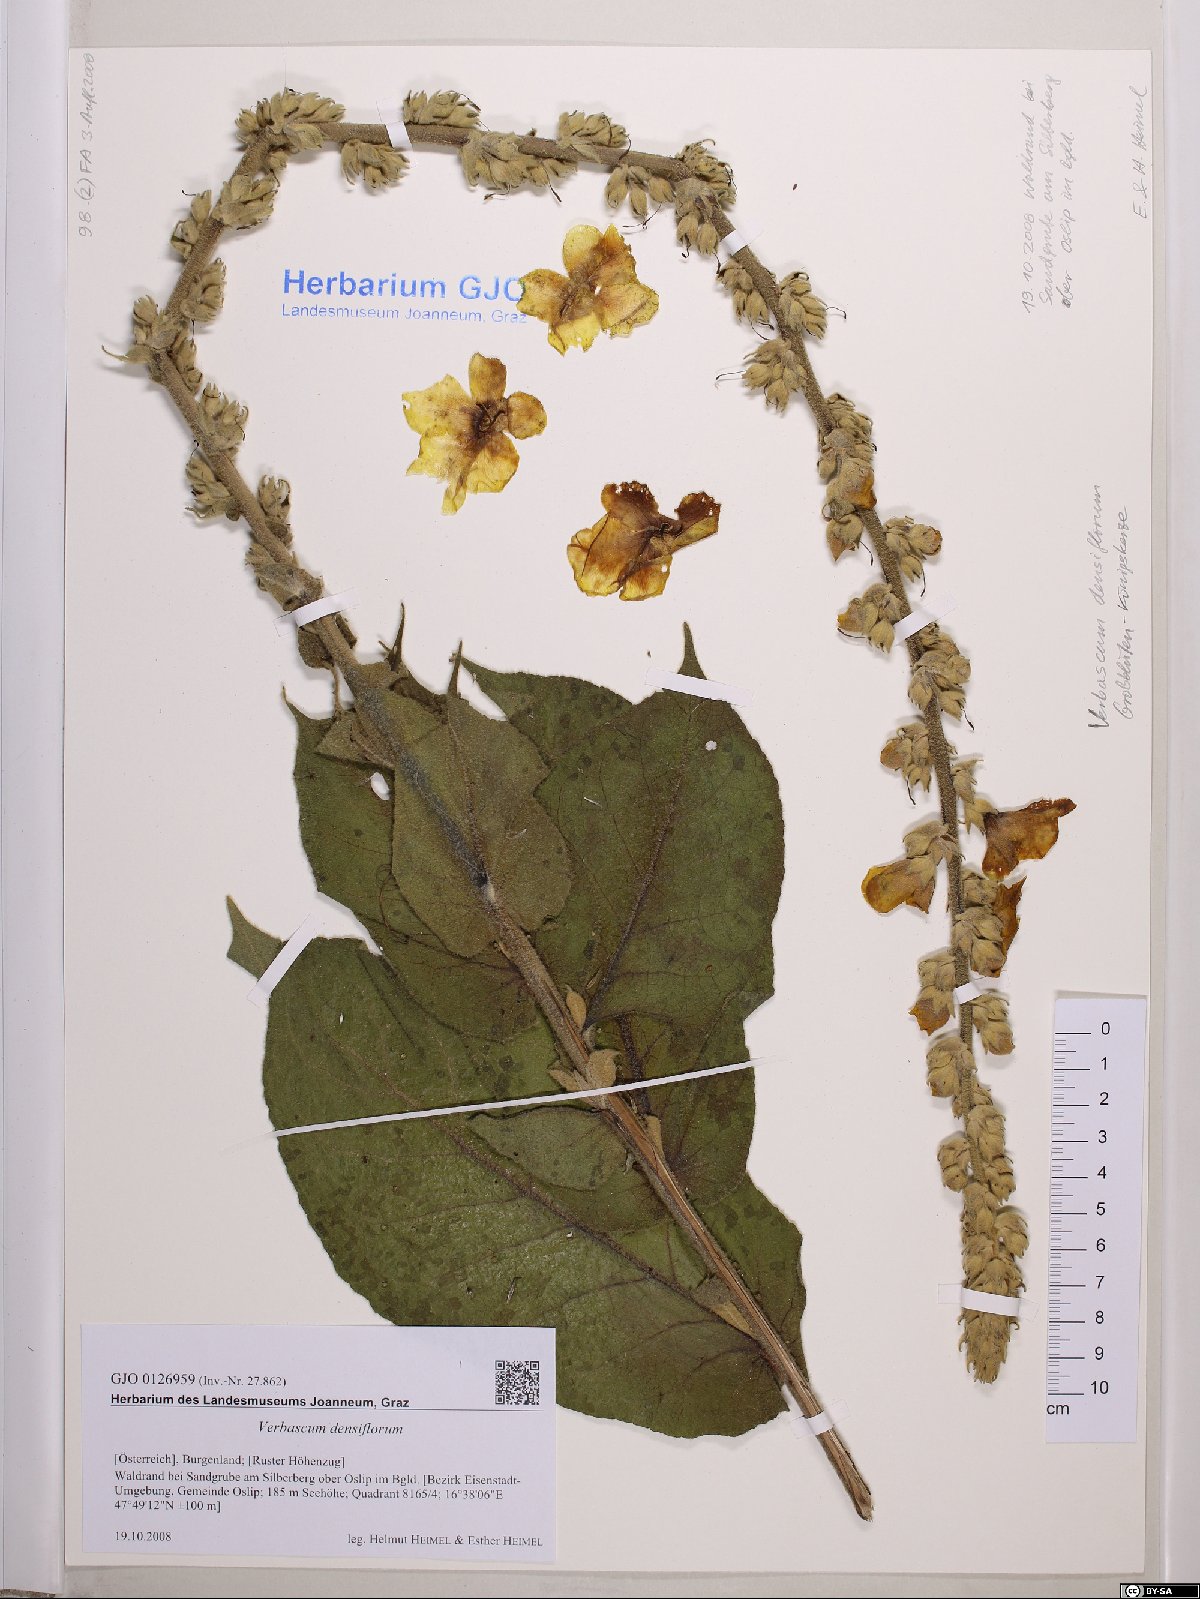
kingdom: Plantae
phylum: Tracheophyta
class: Magnoliopsida
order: Lamiales
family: Scrophulariaceae
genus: Verbascum
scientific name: Verbascum densiflorum
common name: Dense-flowered mullein
